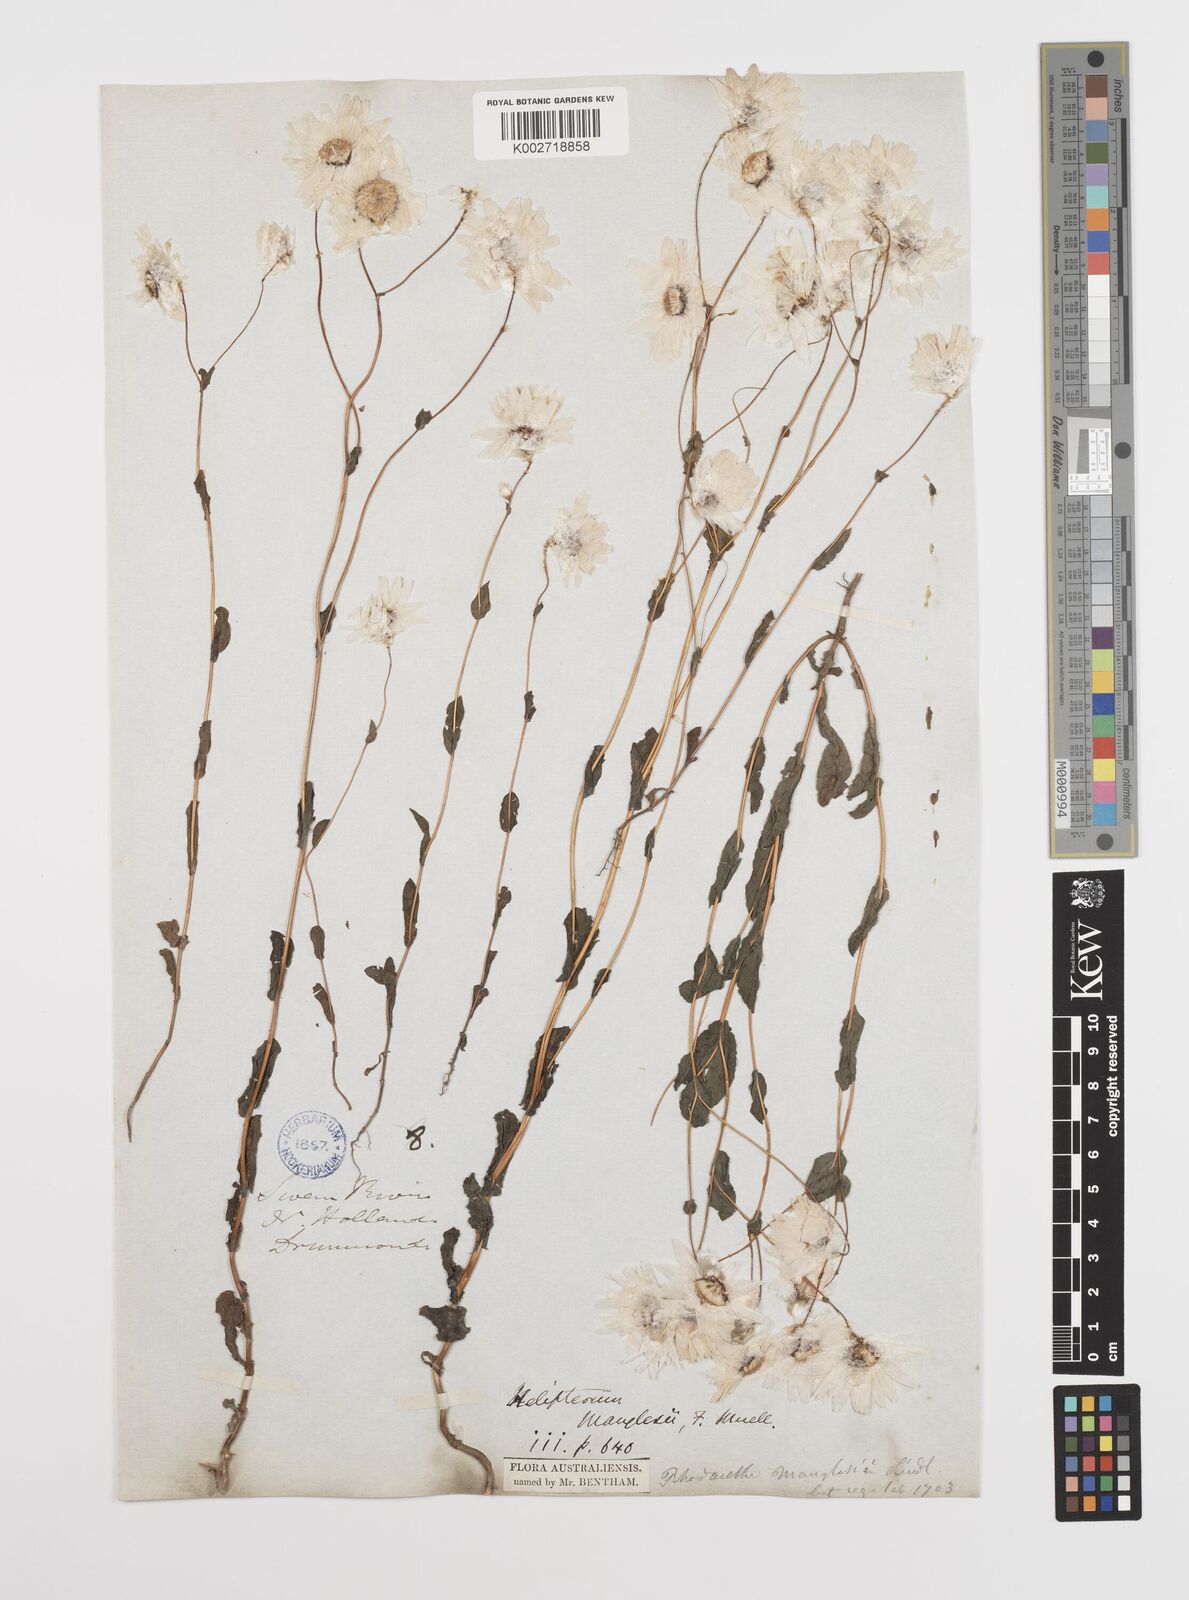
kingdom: Plantae
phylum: Tracheophyta
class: Magnoliopsida
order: Asterales
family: Asteraceae
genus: Rhodanthe
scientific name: Rhodanthe manglesii
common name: Pink sunray
